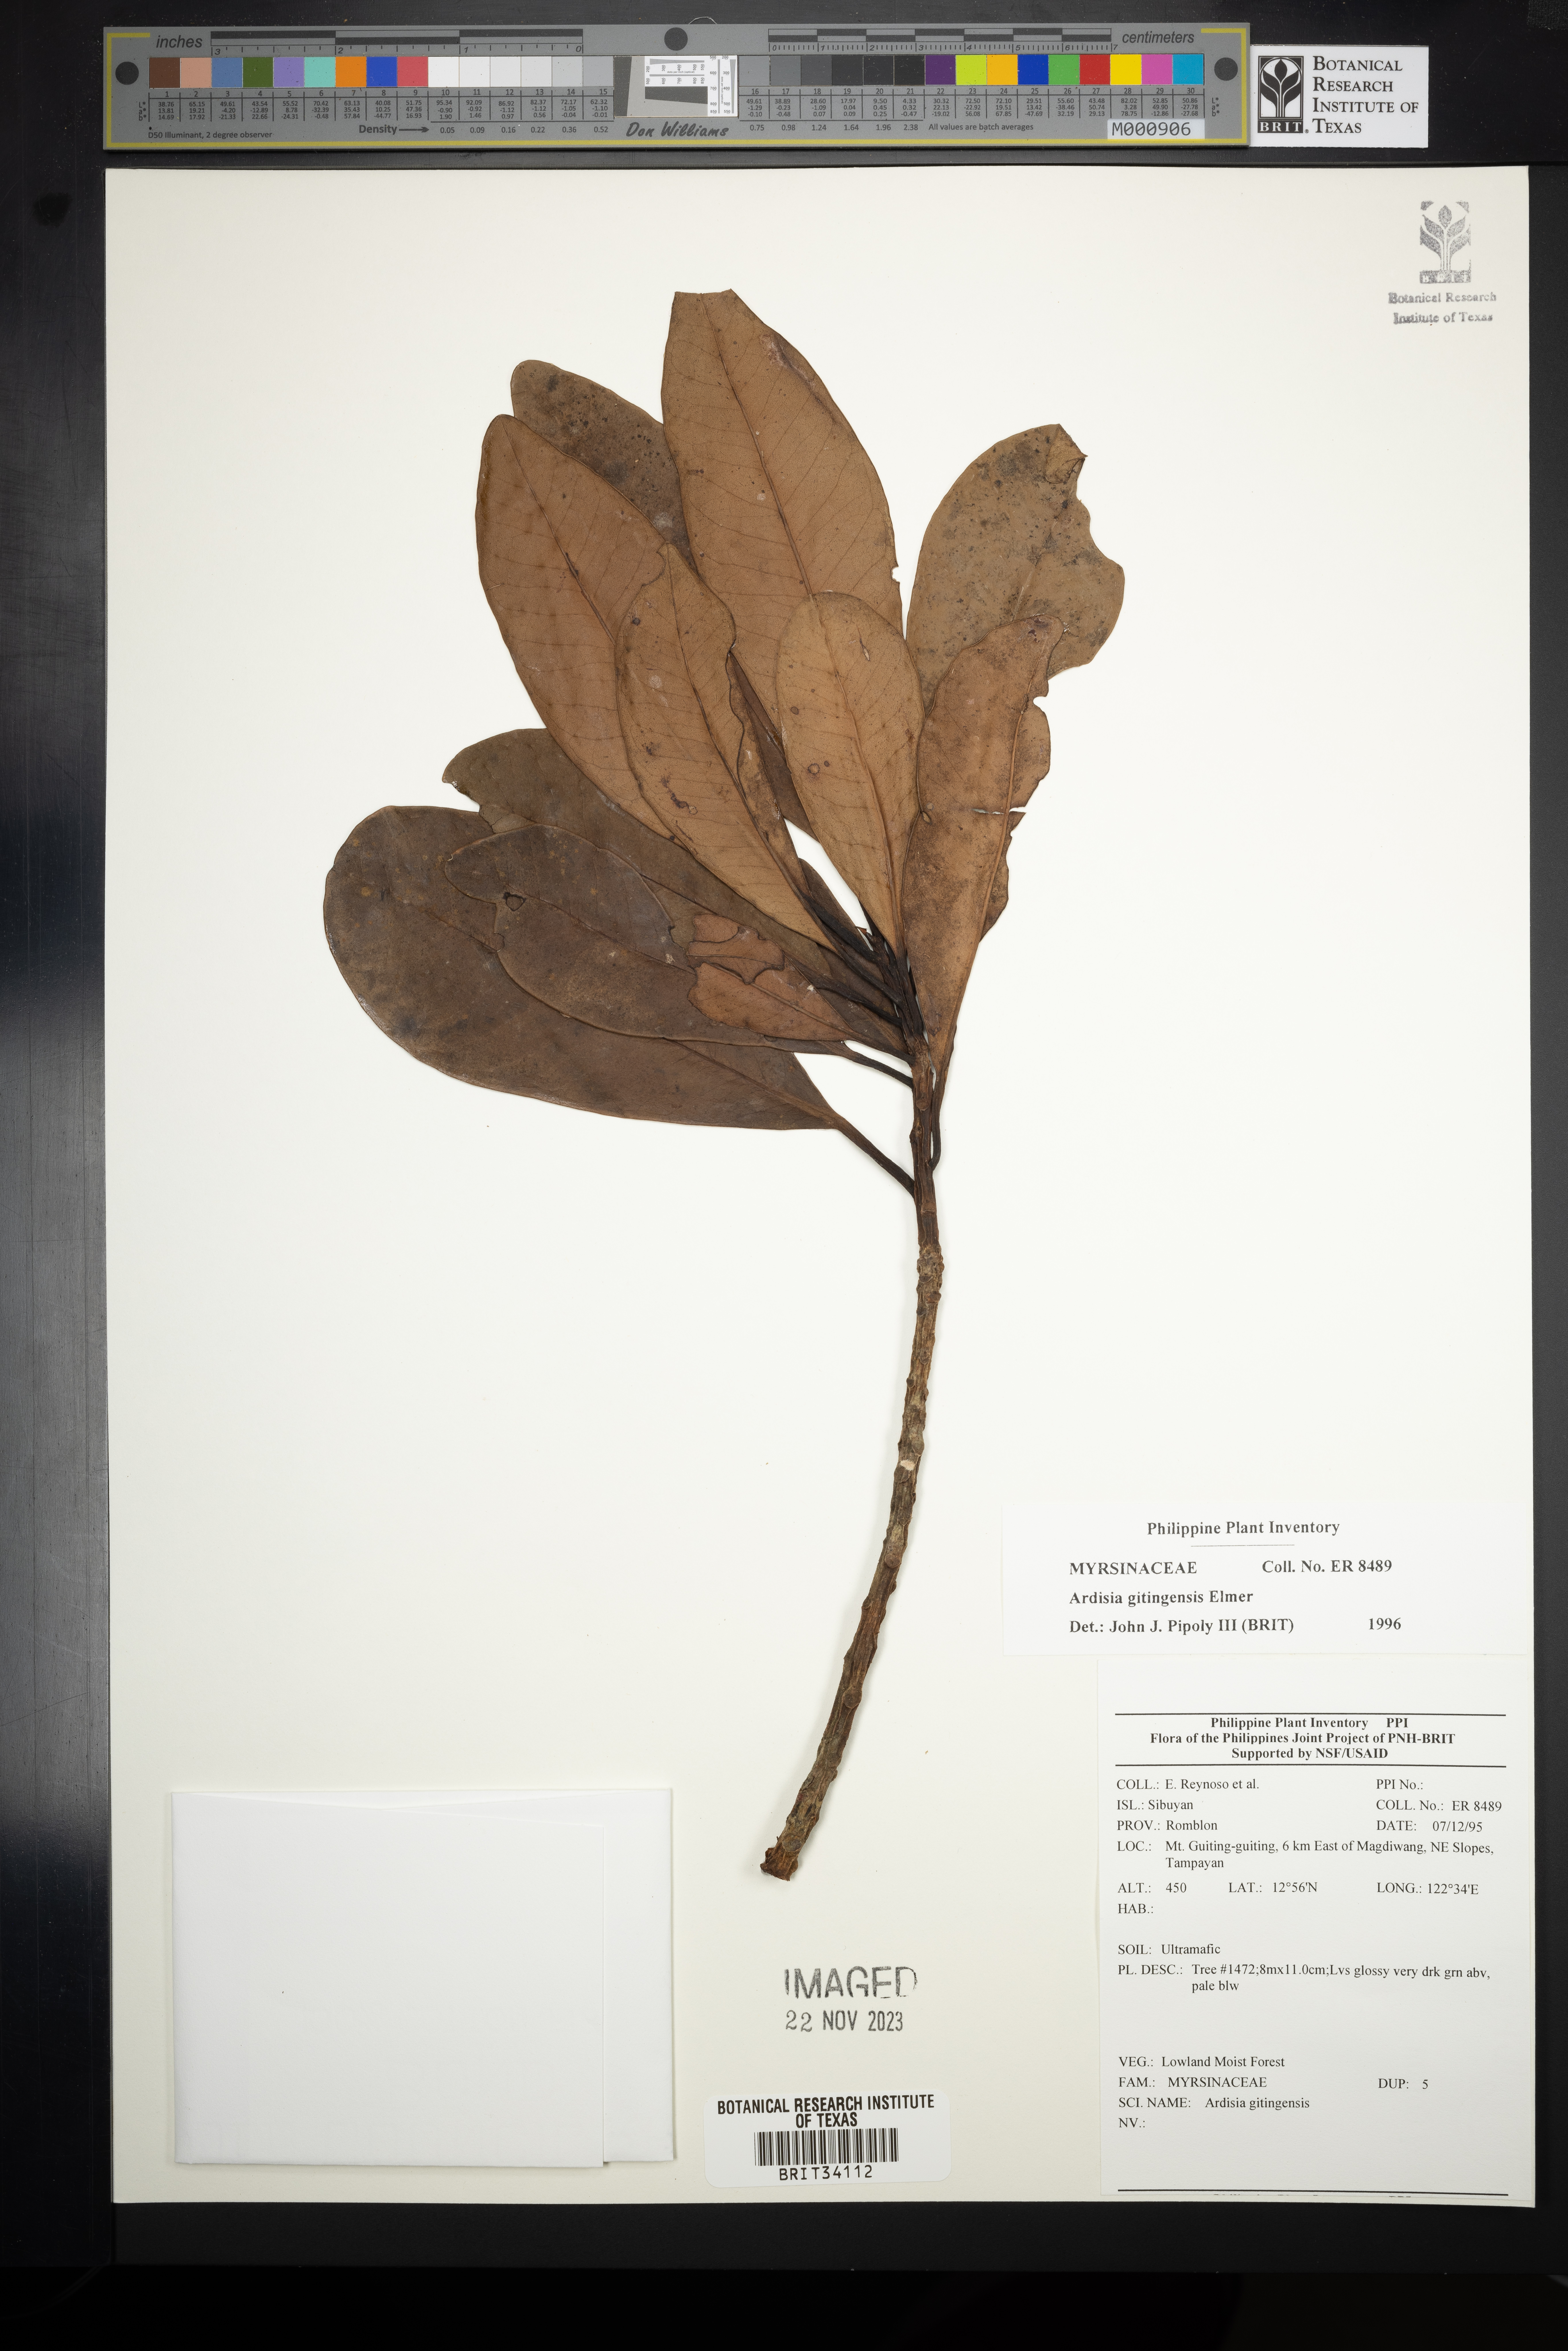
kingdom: Plantae
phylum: Tracheophyta
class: Magnoliopsida
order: Ericales
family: Primulaceae
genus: Ardisia
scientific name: Ardisia darlingii
